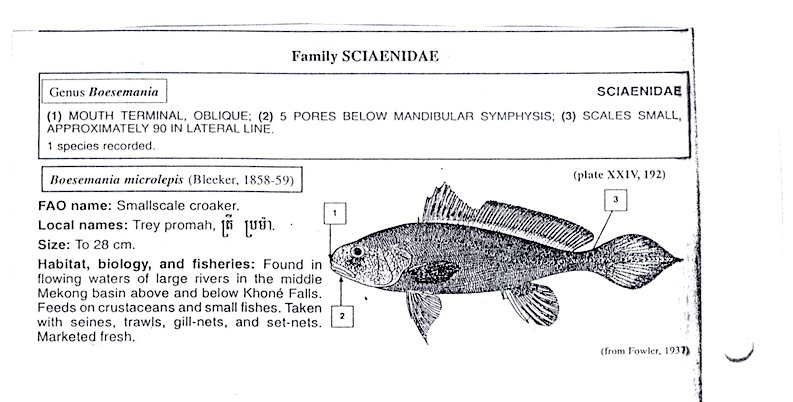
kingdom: Animalia
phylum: Chordata
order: Perciformes
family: Sciaenidae
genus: Boesemania
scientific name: Boesemania microlepis
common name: Boeseman croaker
